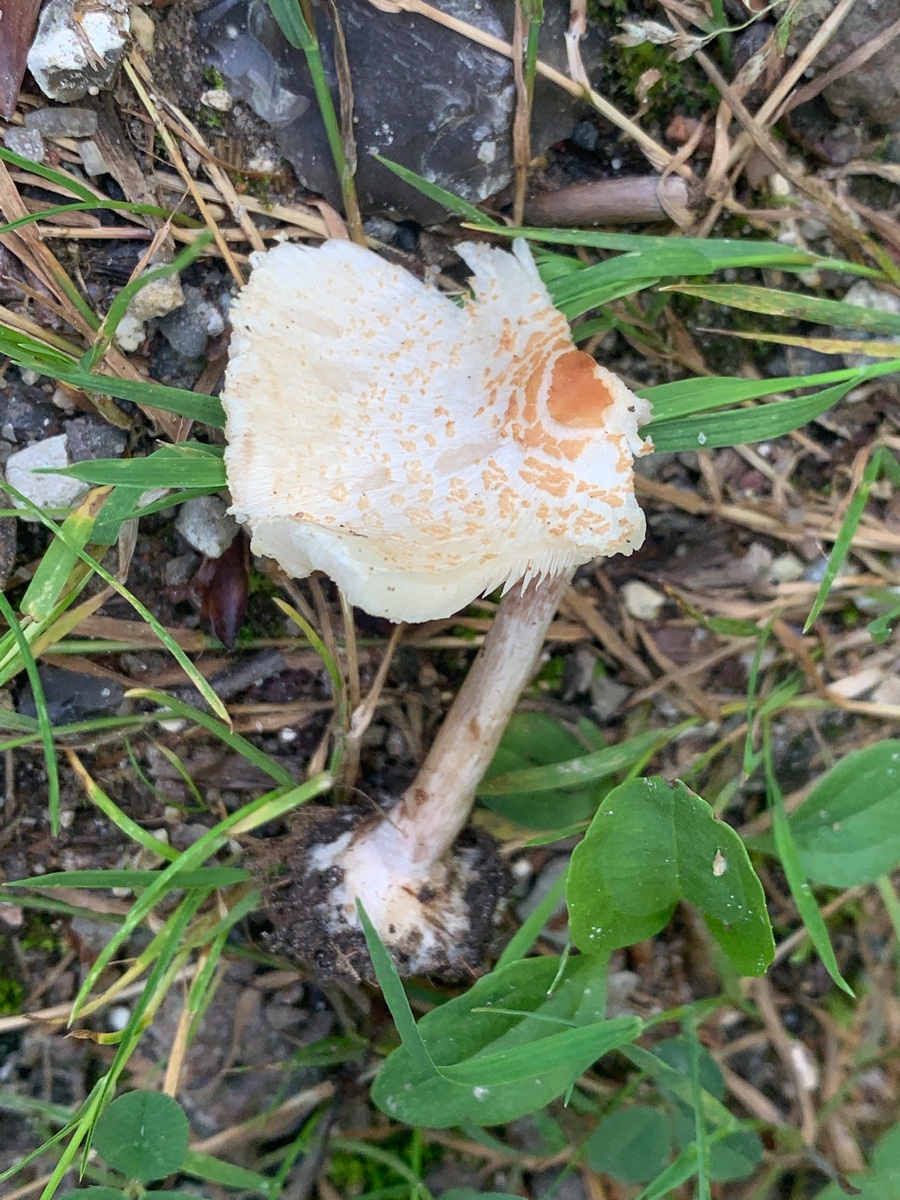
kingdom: Fungi
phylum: Basidiomycota
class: Agaricomycetes
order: Agaricales
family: Agaricaceae
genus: Lepiota
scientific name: Lepiota cristata
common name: stinkende parasolhat
